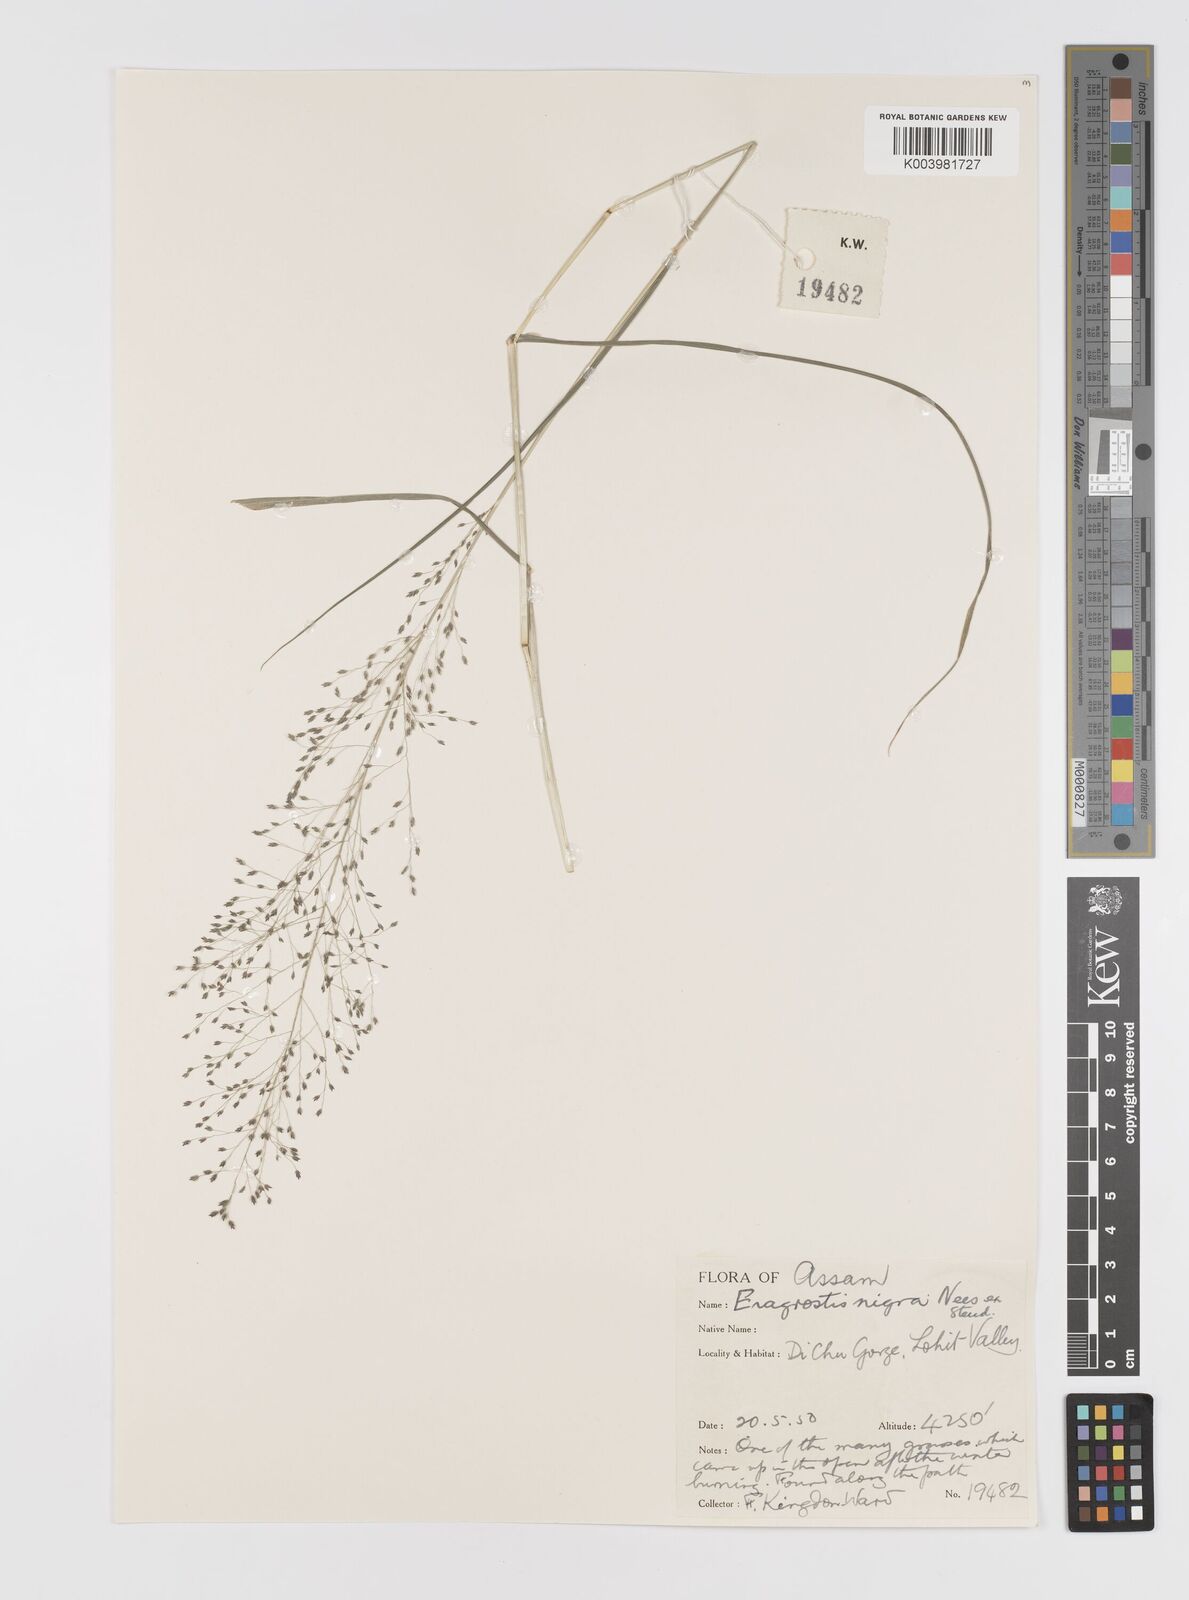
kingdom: Plantae
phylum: Tracheophyta
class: Liliopsida
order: Poales
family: Poaceae
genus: Eragrostis
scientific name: Eragrostis nigra
